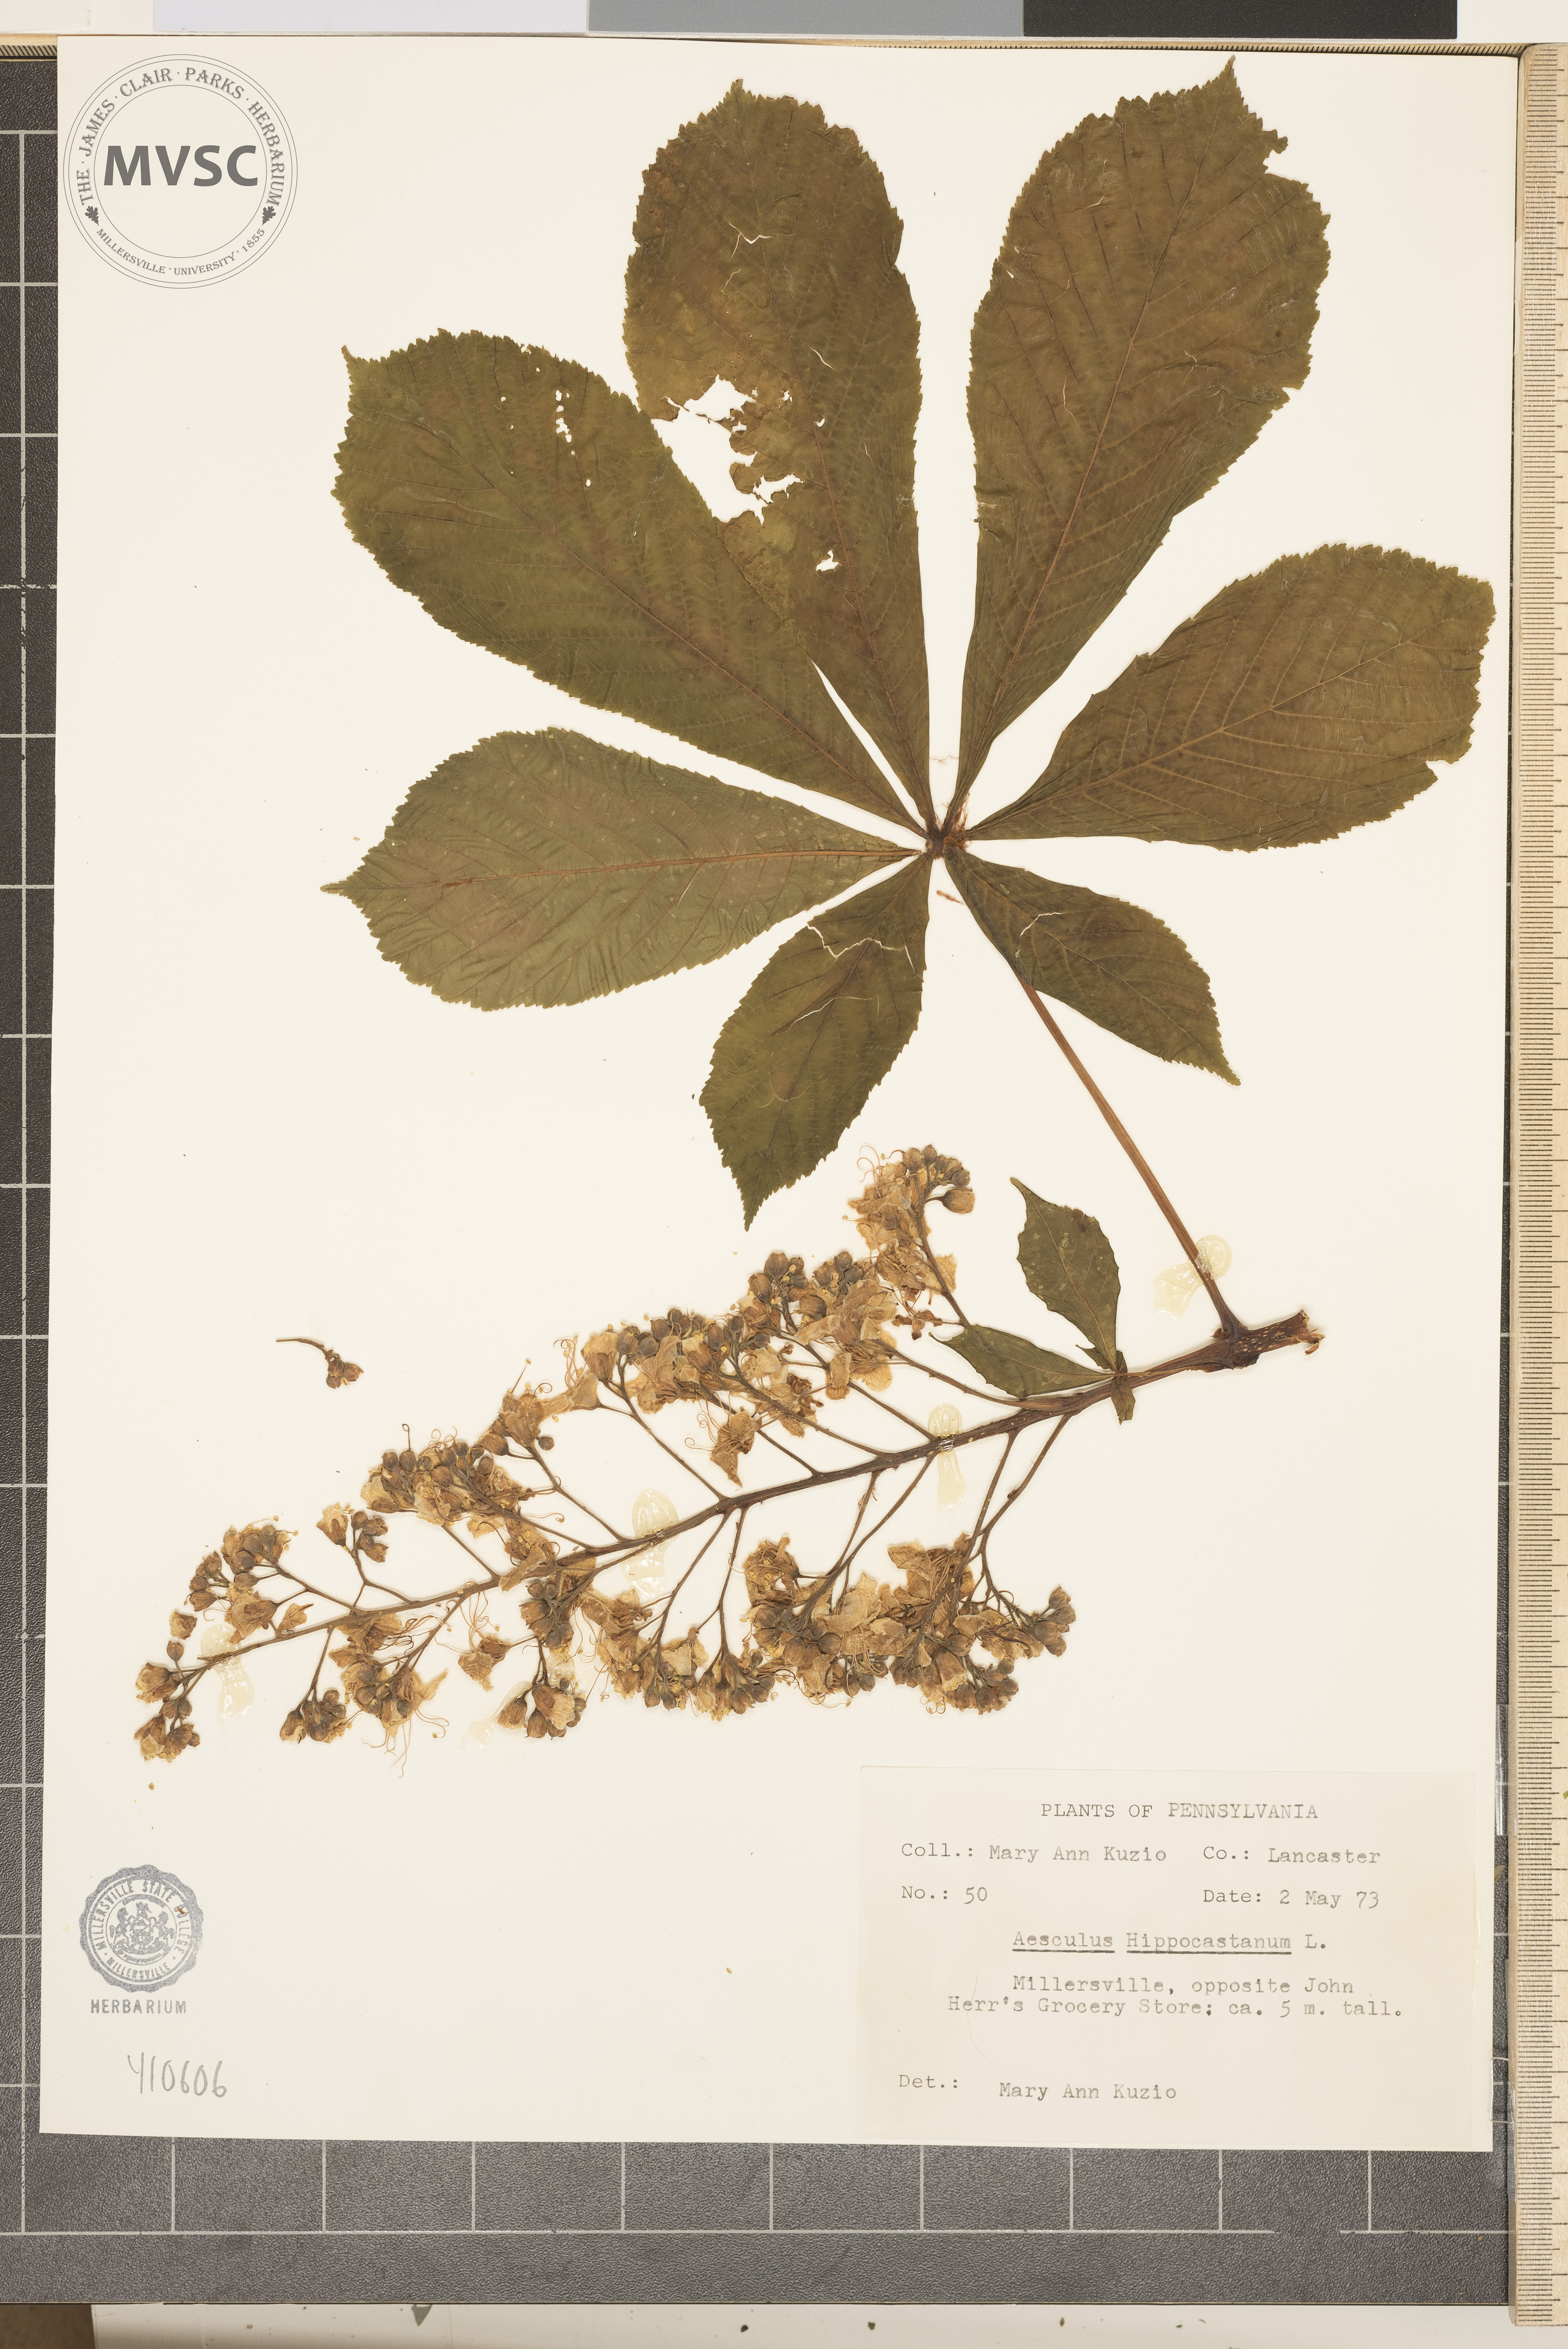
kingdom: Plantae
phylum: Tracheophyta
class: Magnoliopsida
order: Sapindales
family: Sapindaceae
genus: Aesculus
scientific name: Aesculus hippocastanum
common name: Horse-chestnut
